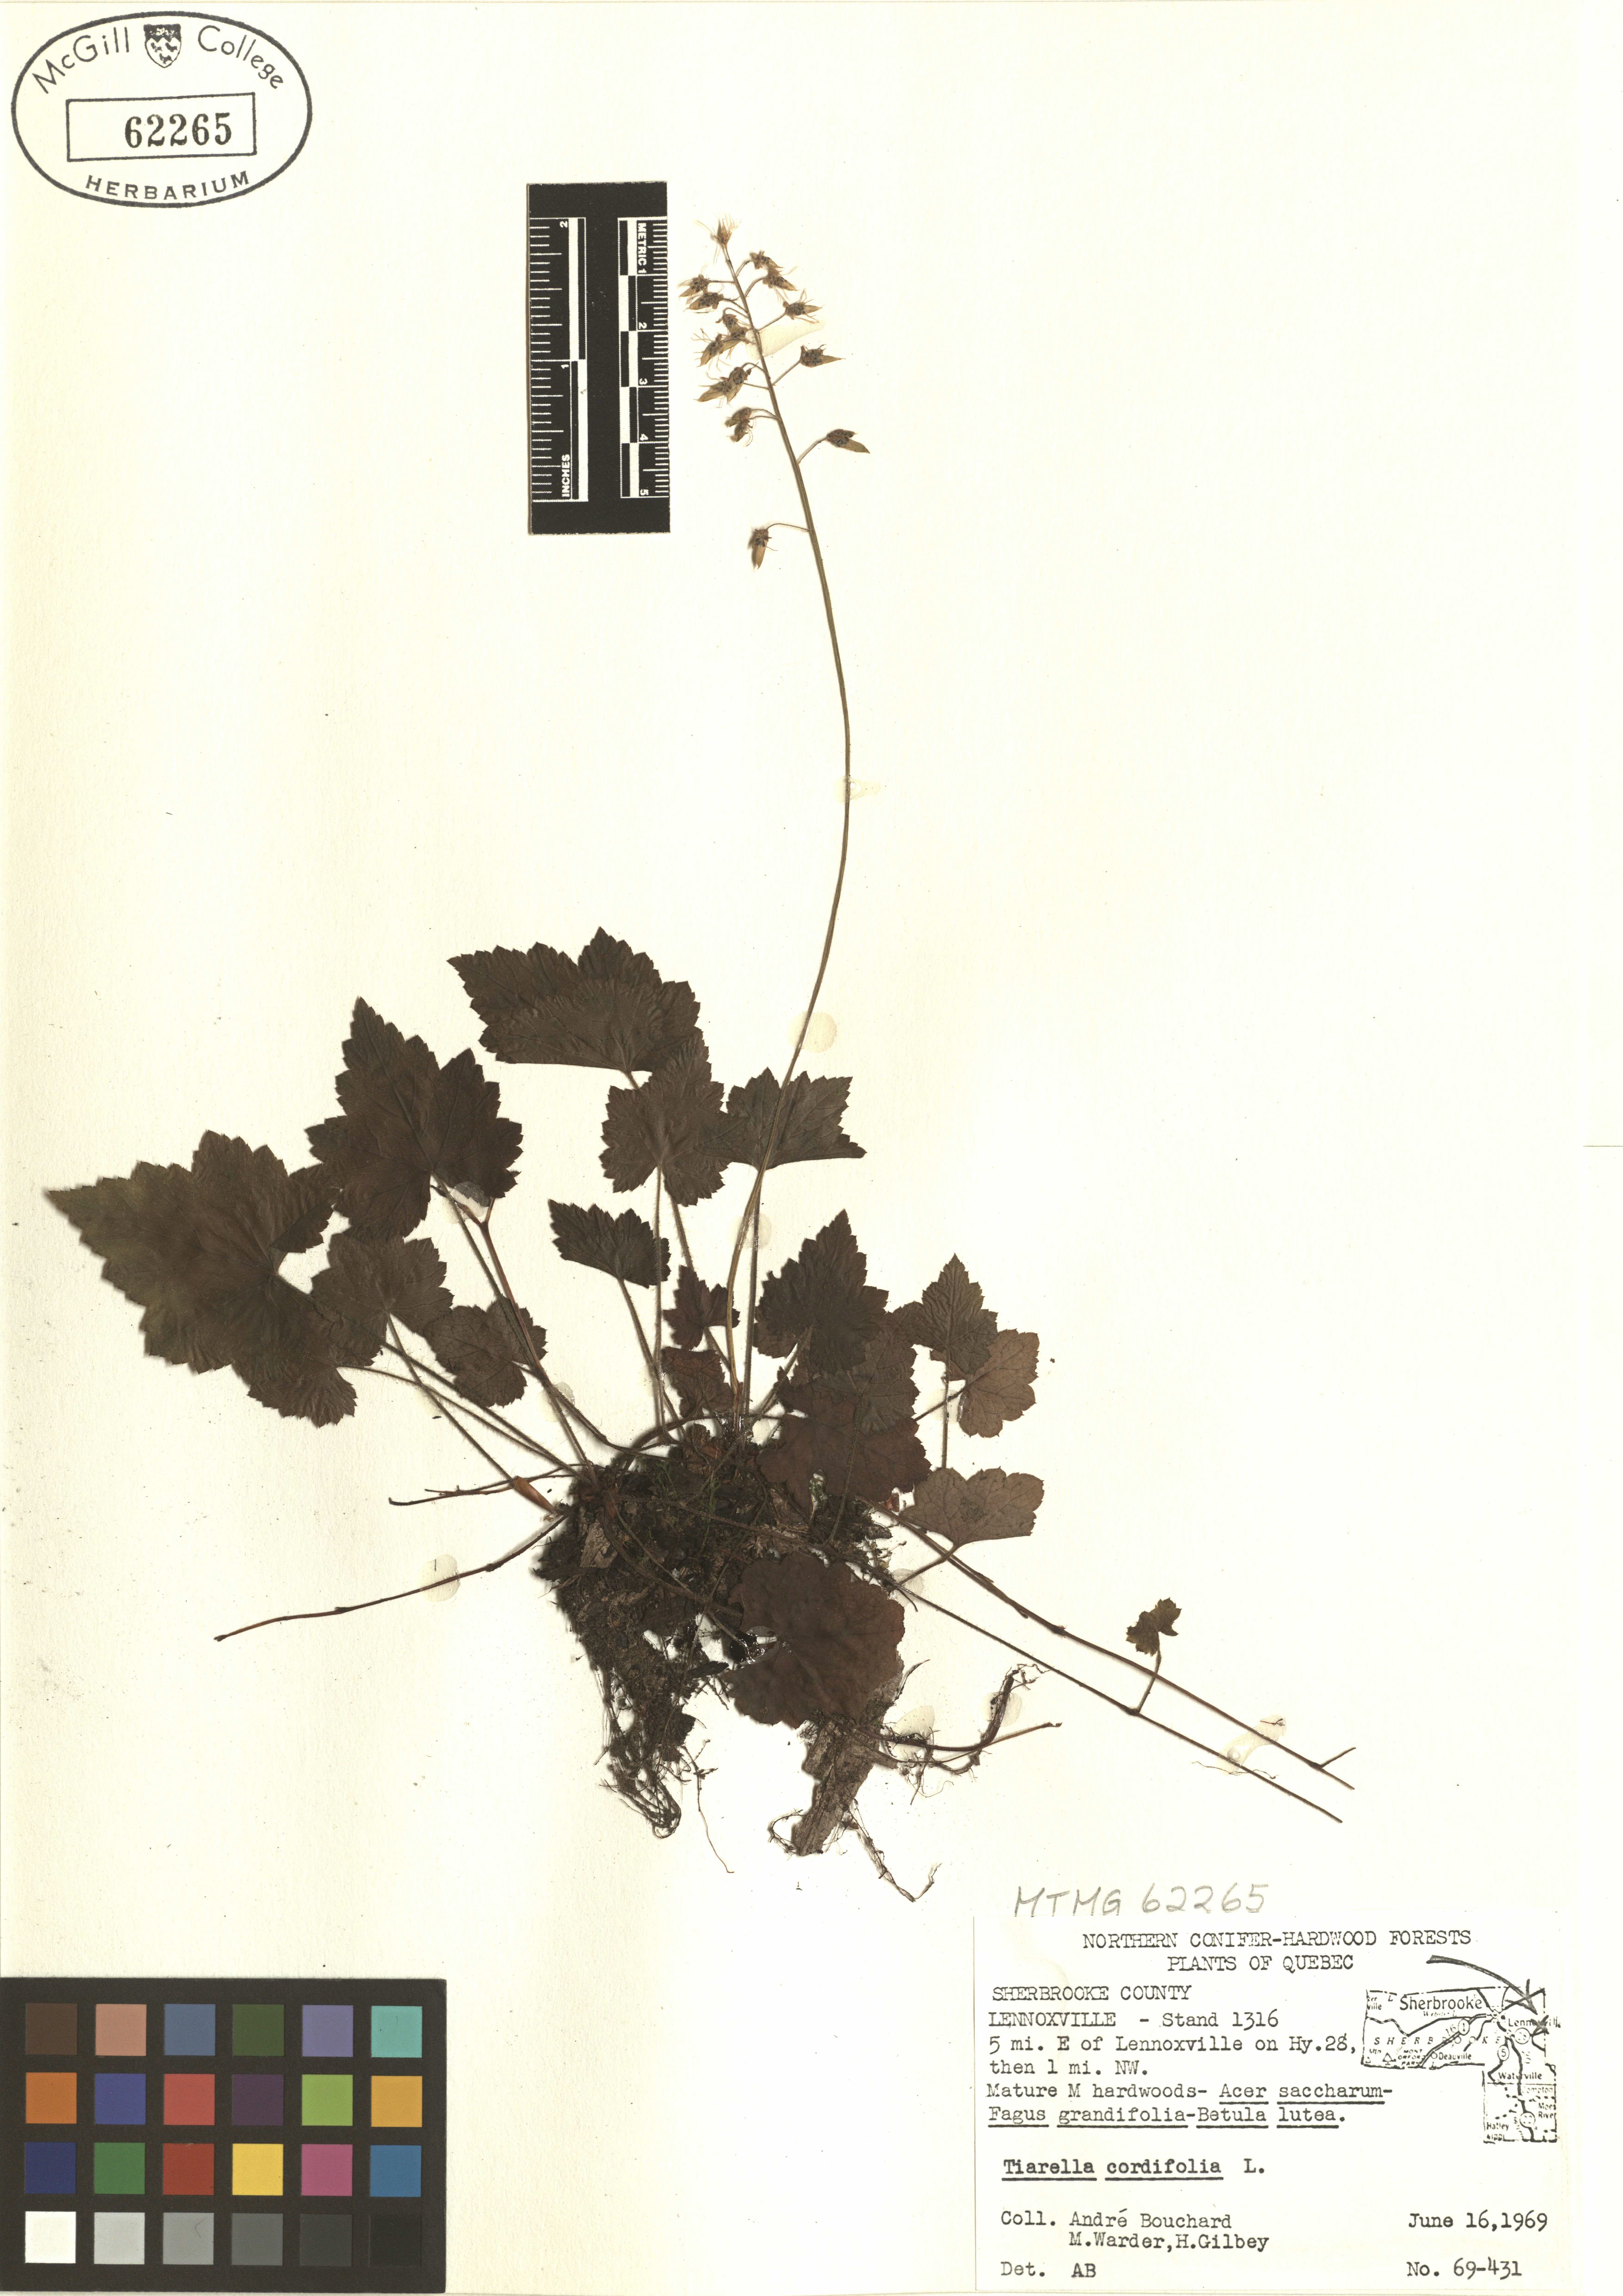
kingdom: Plantae
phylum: Tracheophyta
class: Magnoliopsida
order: Saxifragales
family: Saxifragaceae
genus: Tiarella
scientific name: Tiarella cordifolia
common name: Foamflower
